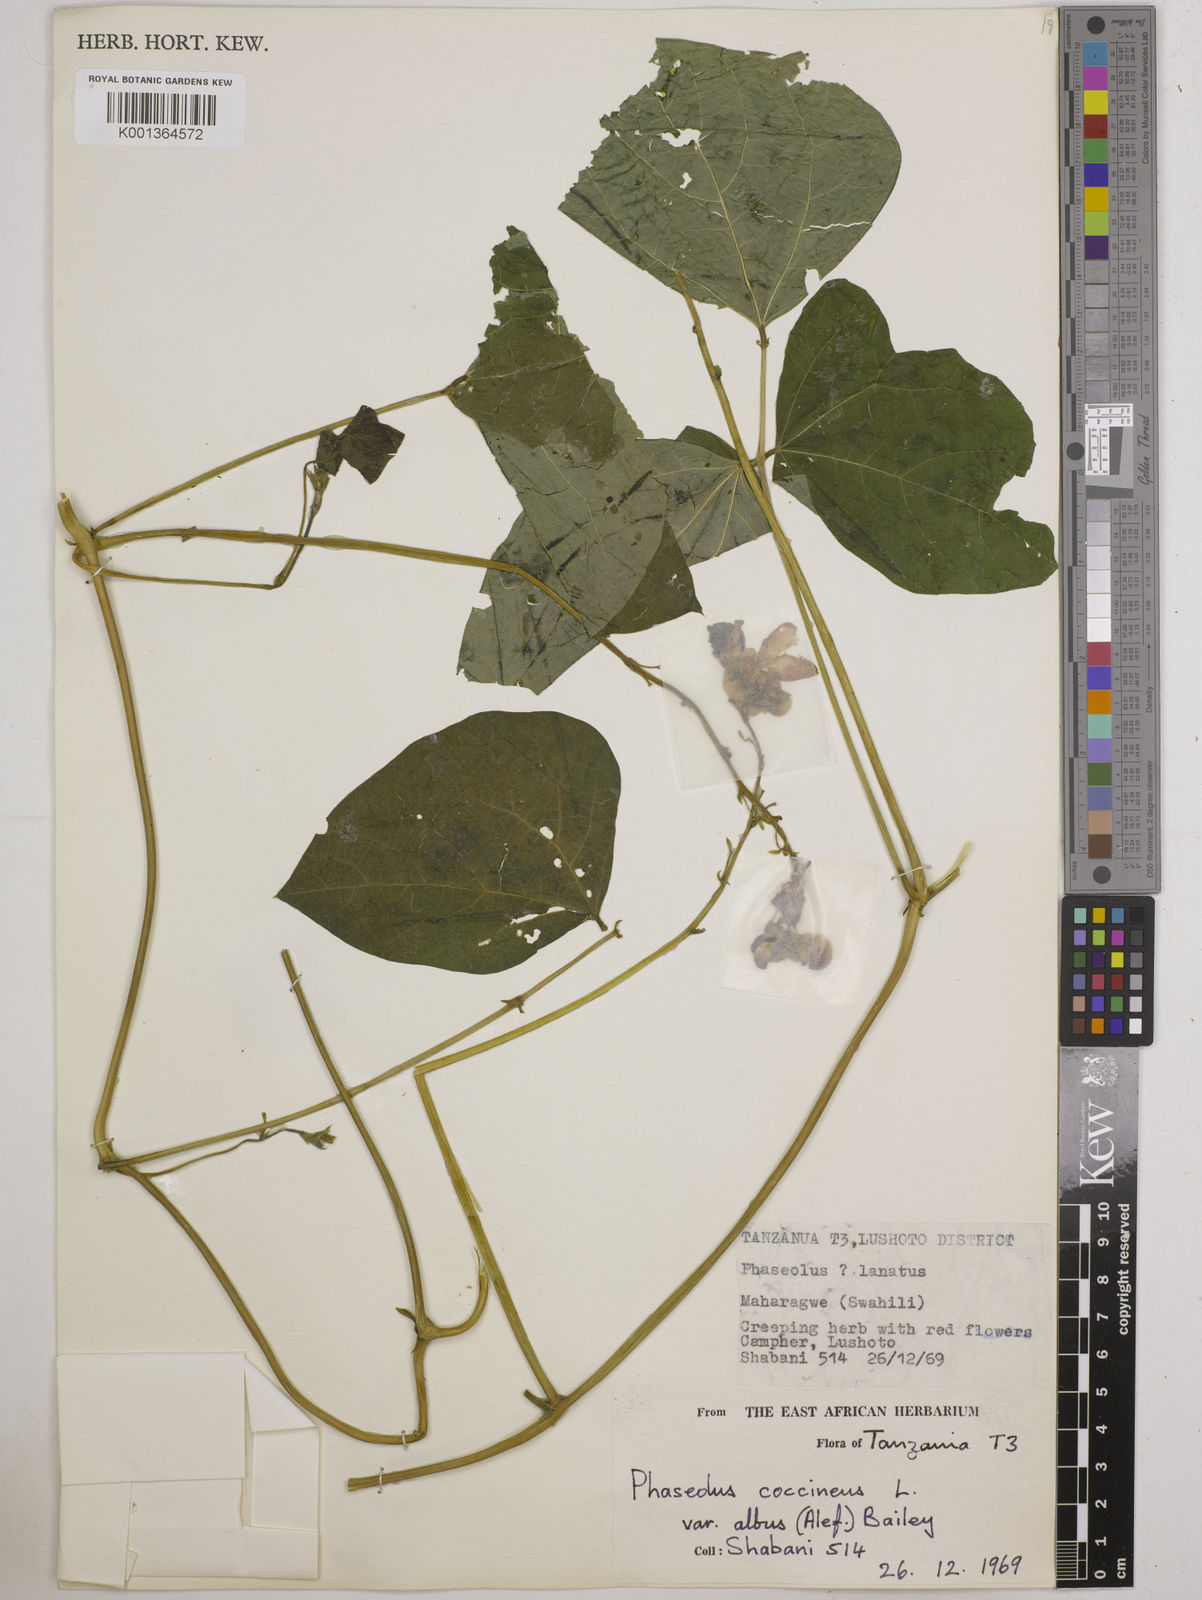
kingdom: Plantae
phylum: Tracheophyta
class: Magnoliopsida
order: Fabales
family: Fabaceae
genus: Phaseolus
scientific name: Phaseolus
